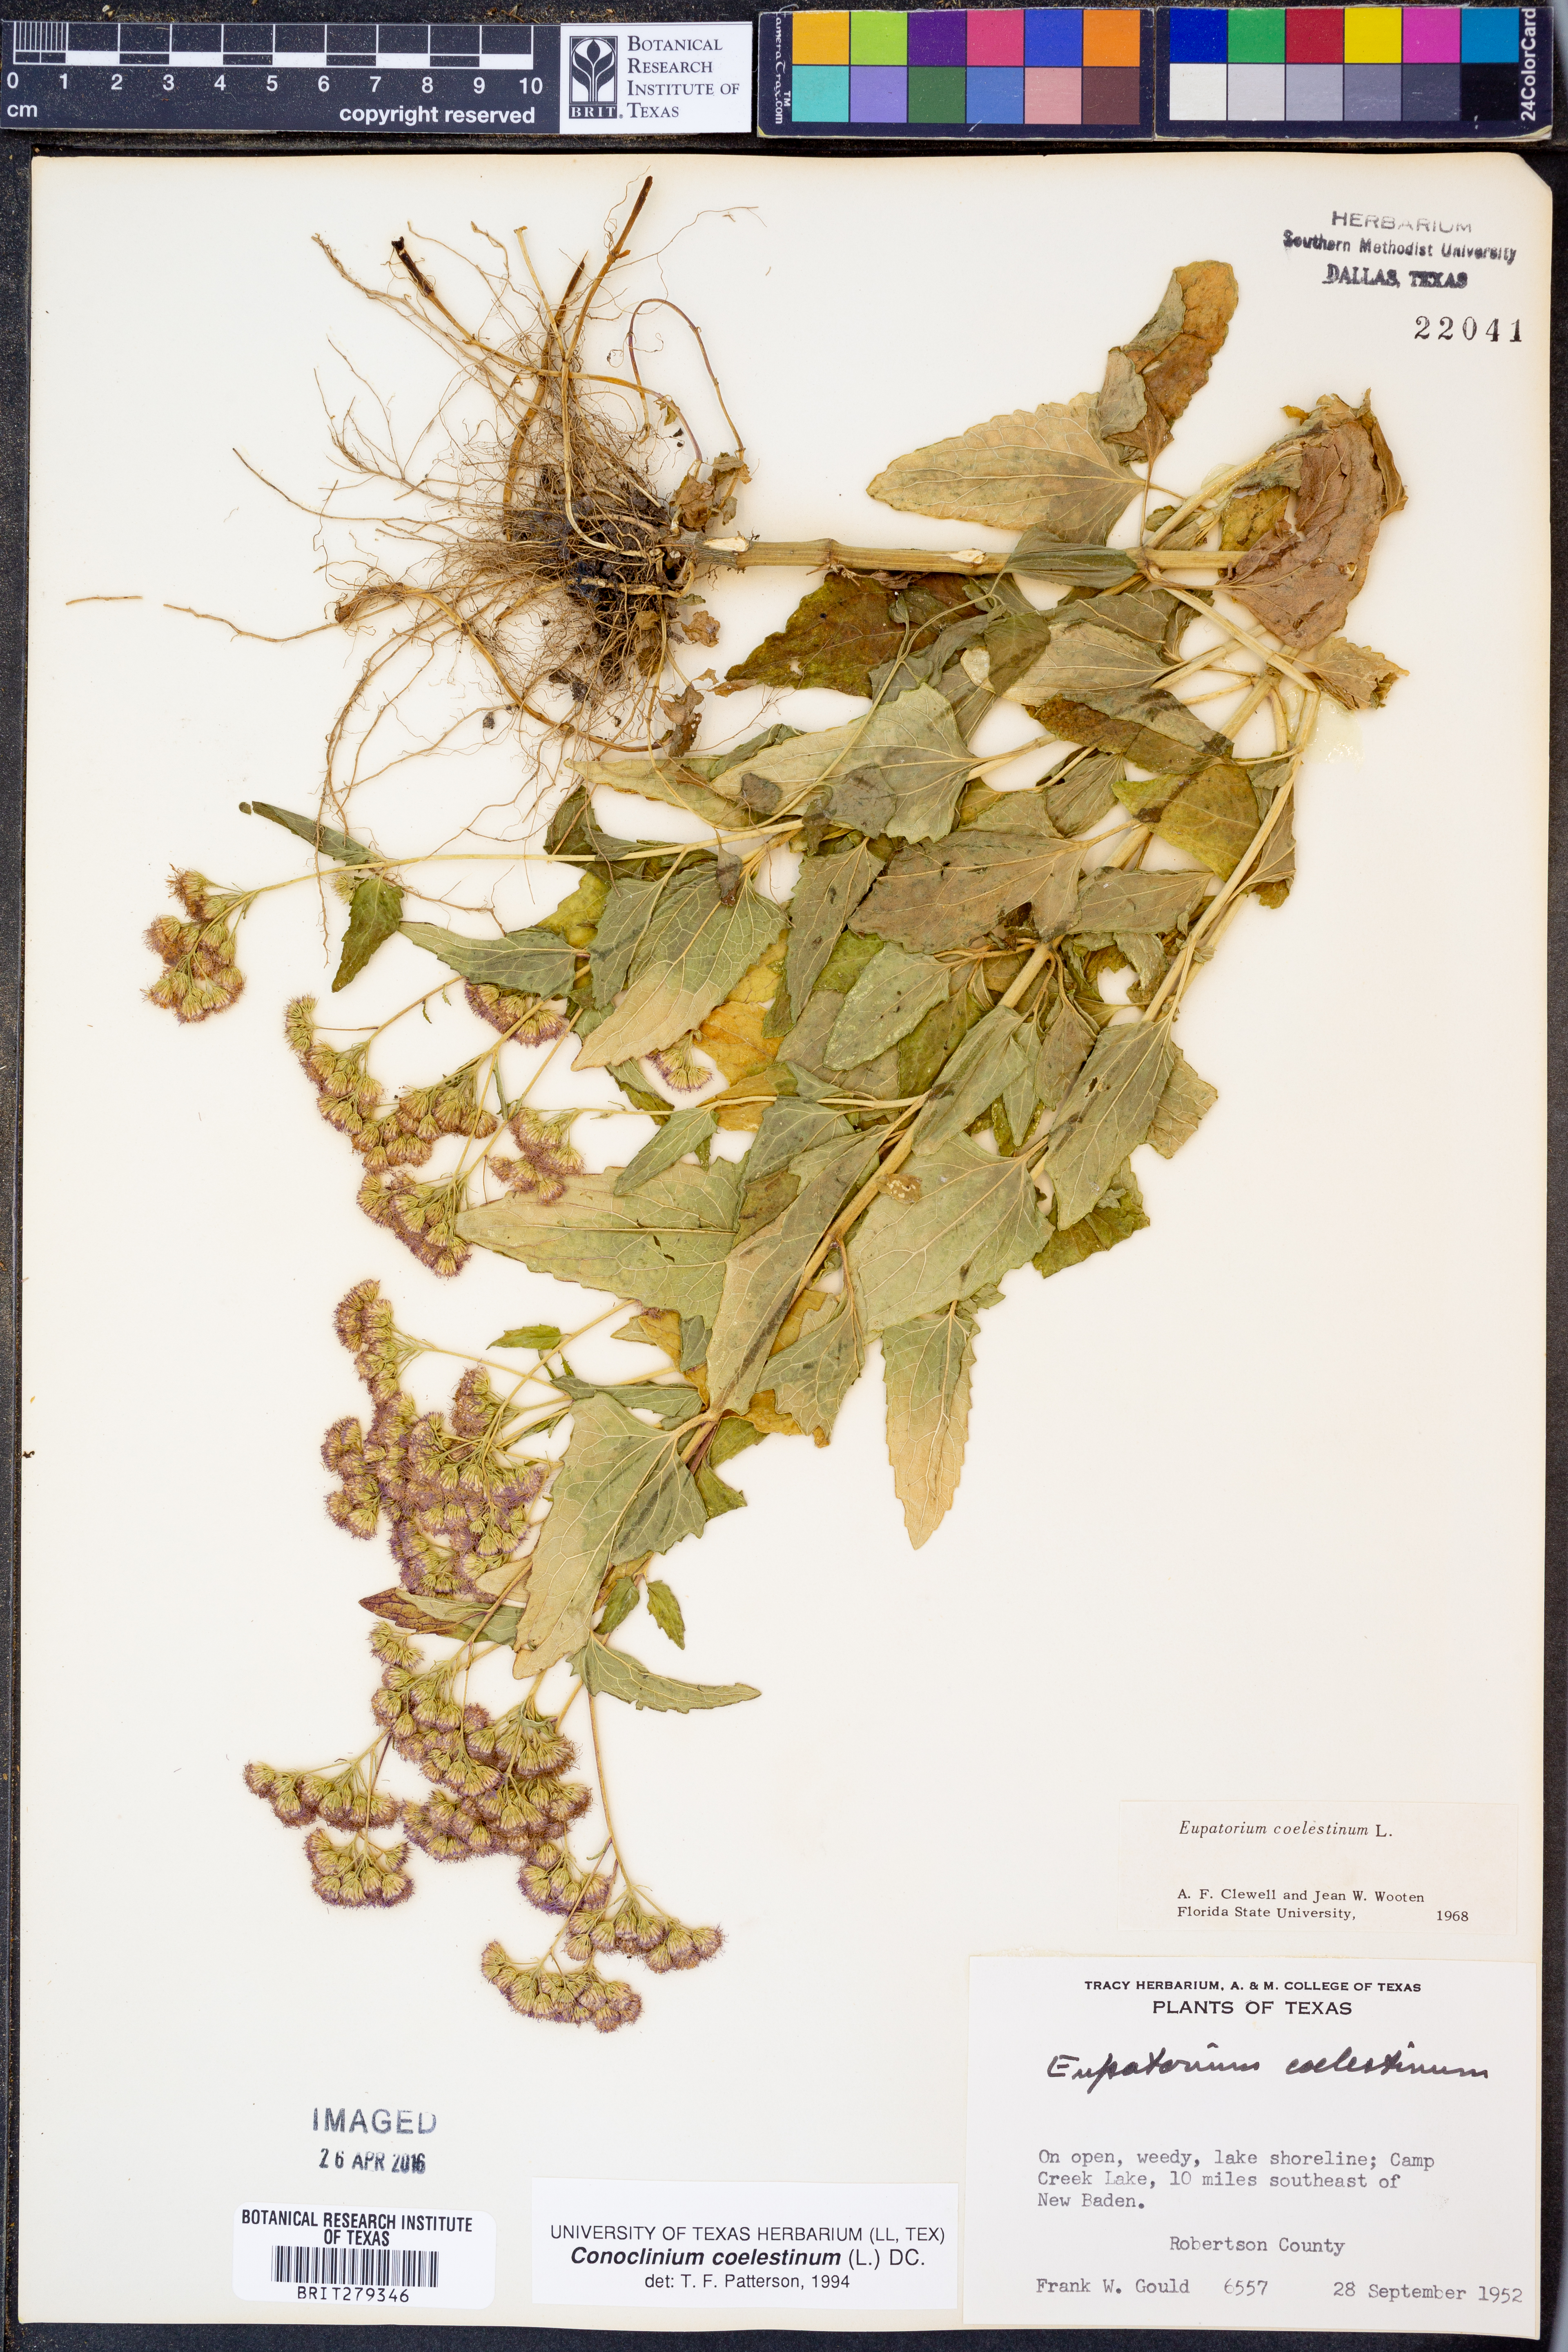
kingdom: Plantae
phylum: Tracheophyta
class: Magnoliopsida
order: Asterales
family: Asteraceae
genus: Conoclinium
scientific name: Conoclinium coelestinum
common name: Blue mistflower
